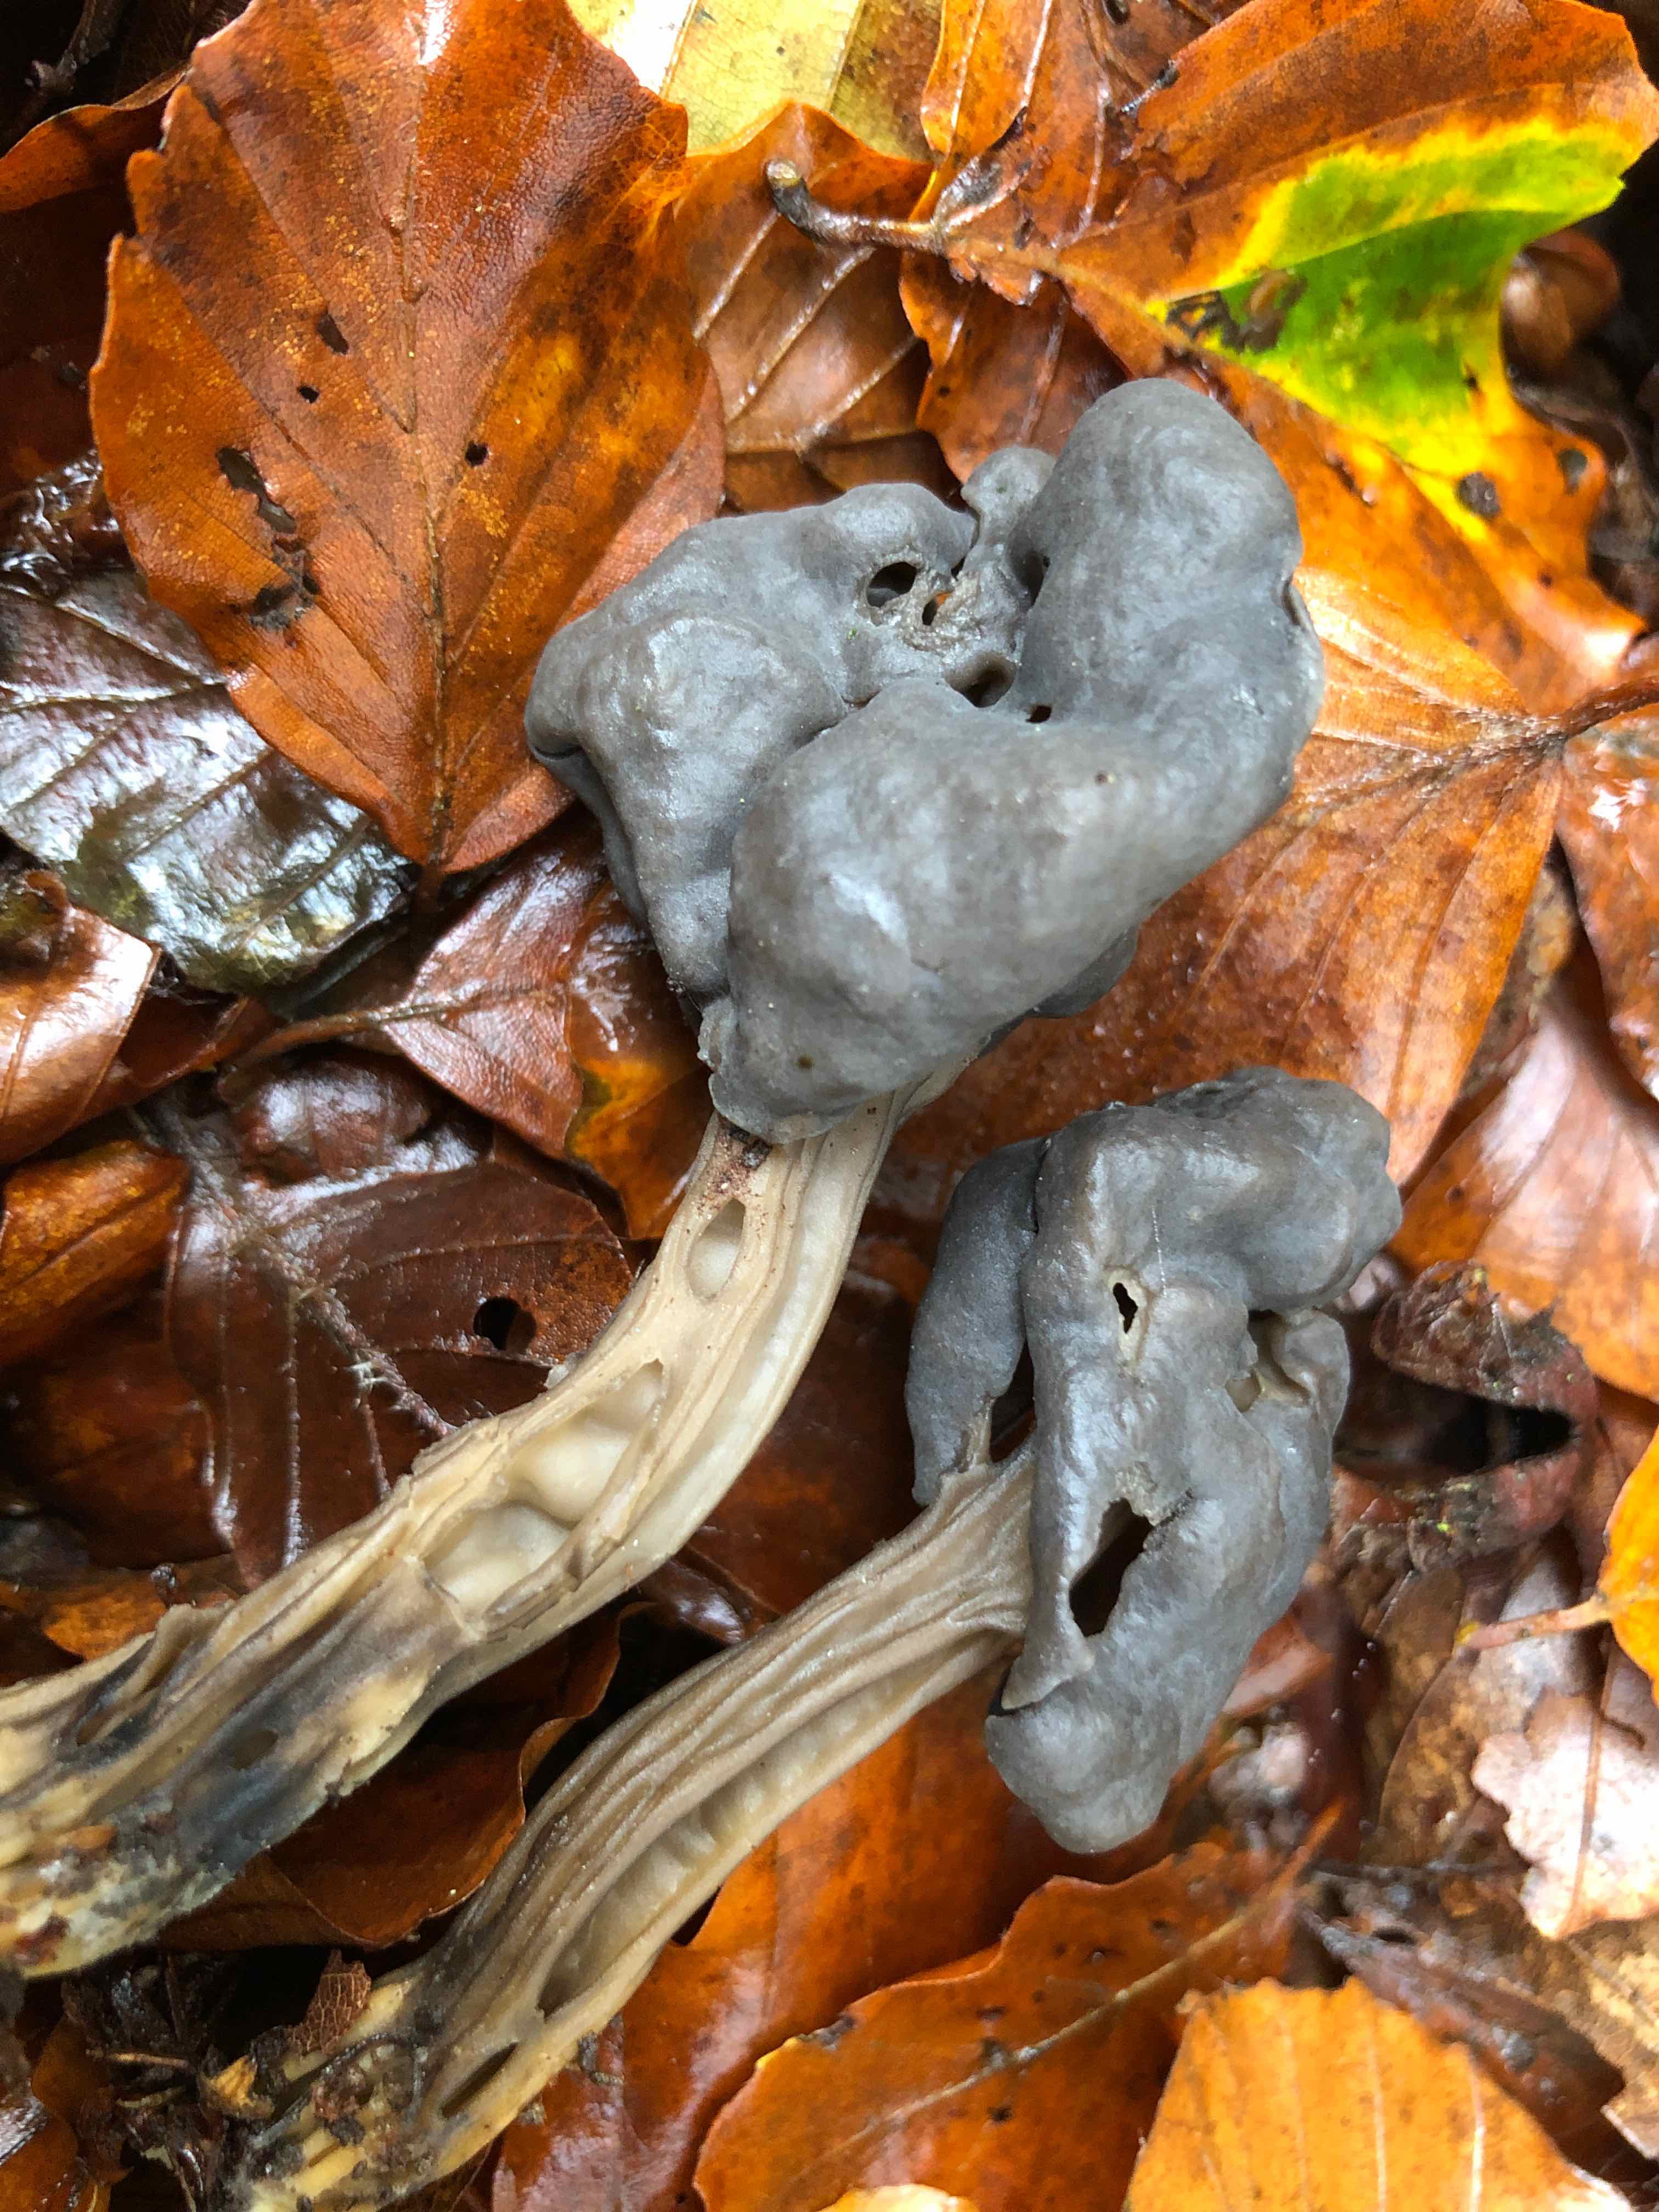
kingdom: Fungi
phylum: Ascomycota
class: Pezizomycetes
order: Pezizales
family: Helvellaceae
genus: Helvella
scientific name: Helvella lacunosa
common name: grubet foldhat
